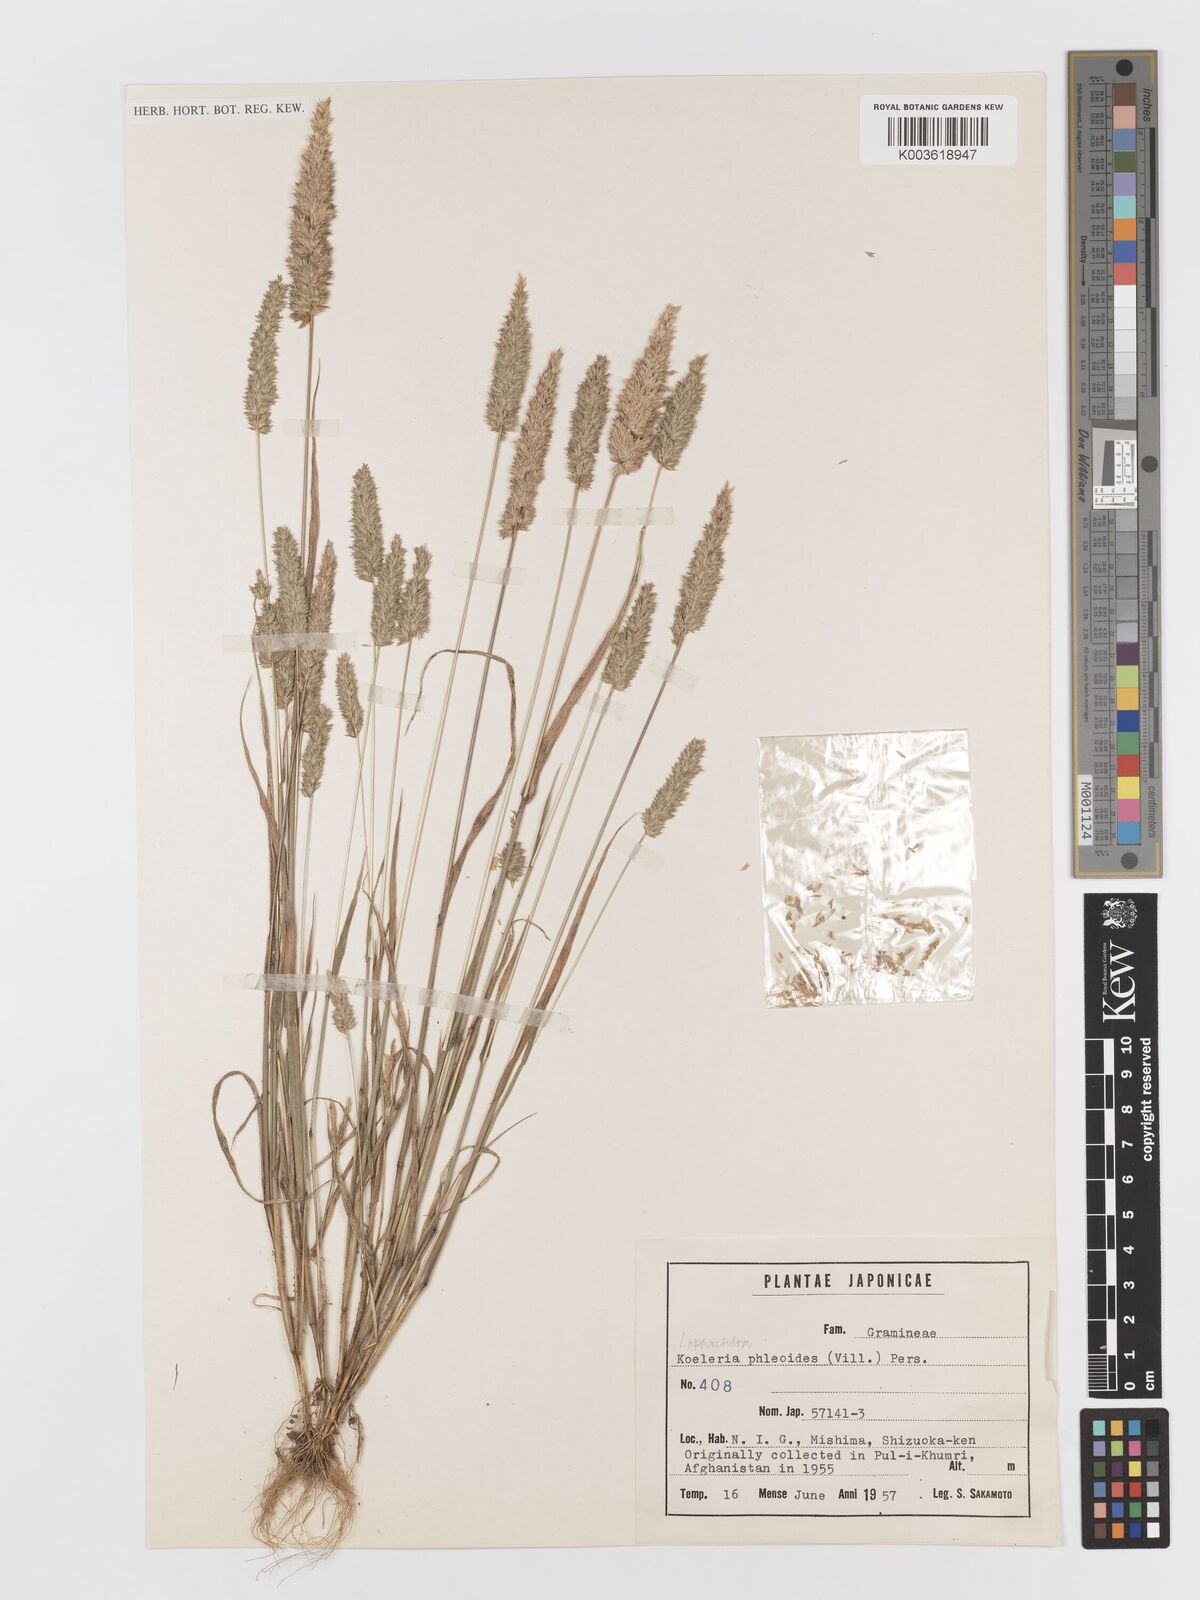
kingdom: Plantae
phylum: Tracheophyta
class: Liliopsida
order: Poales
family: Poaceae
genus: Rostraria
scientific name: Rostraria cristata
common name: Mediterranean hair-grass
